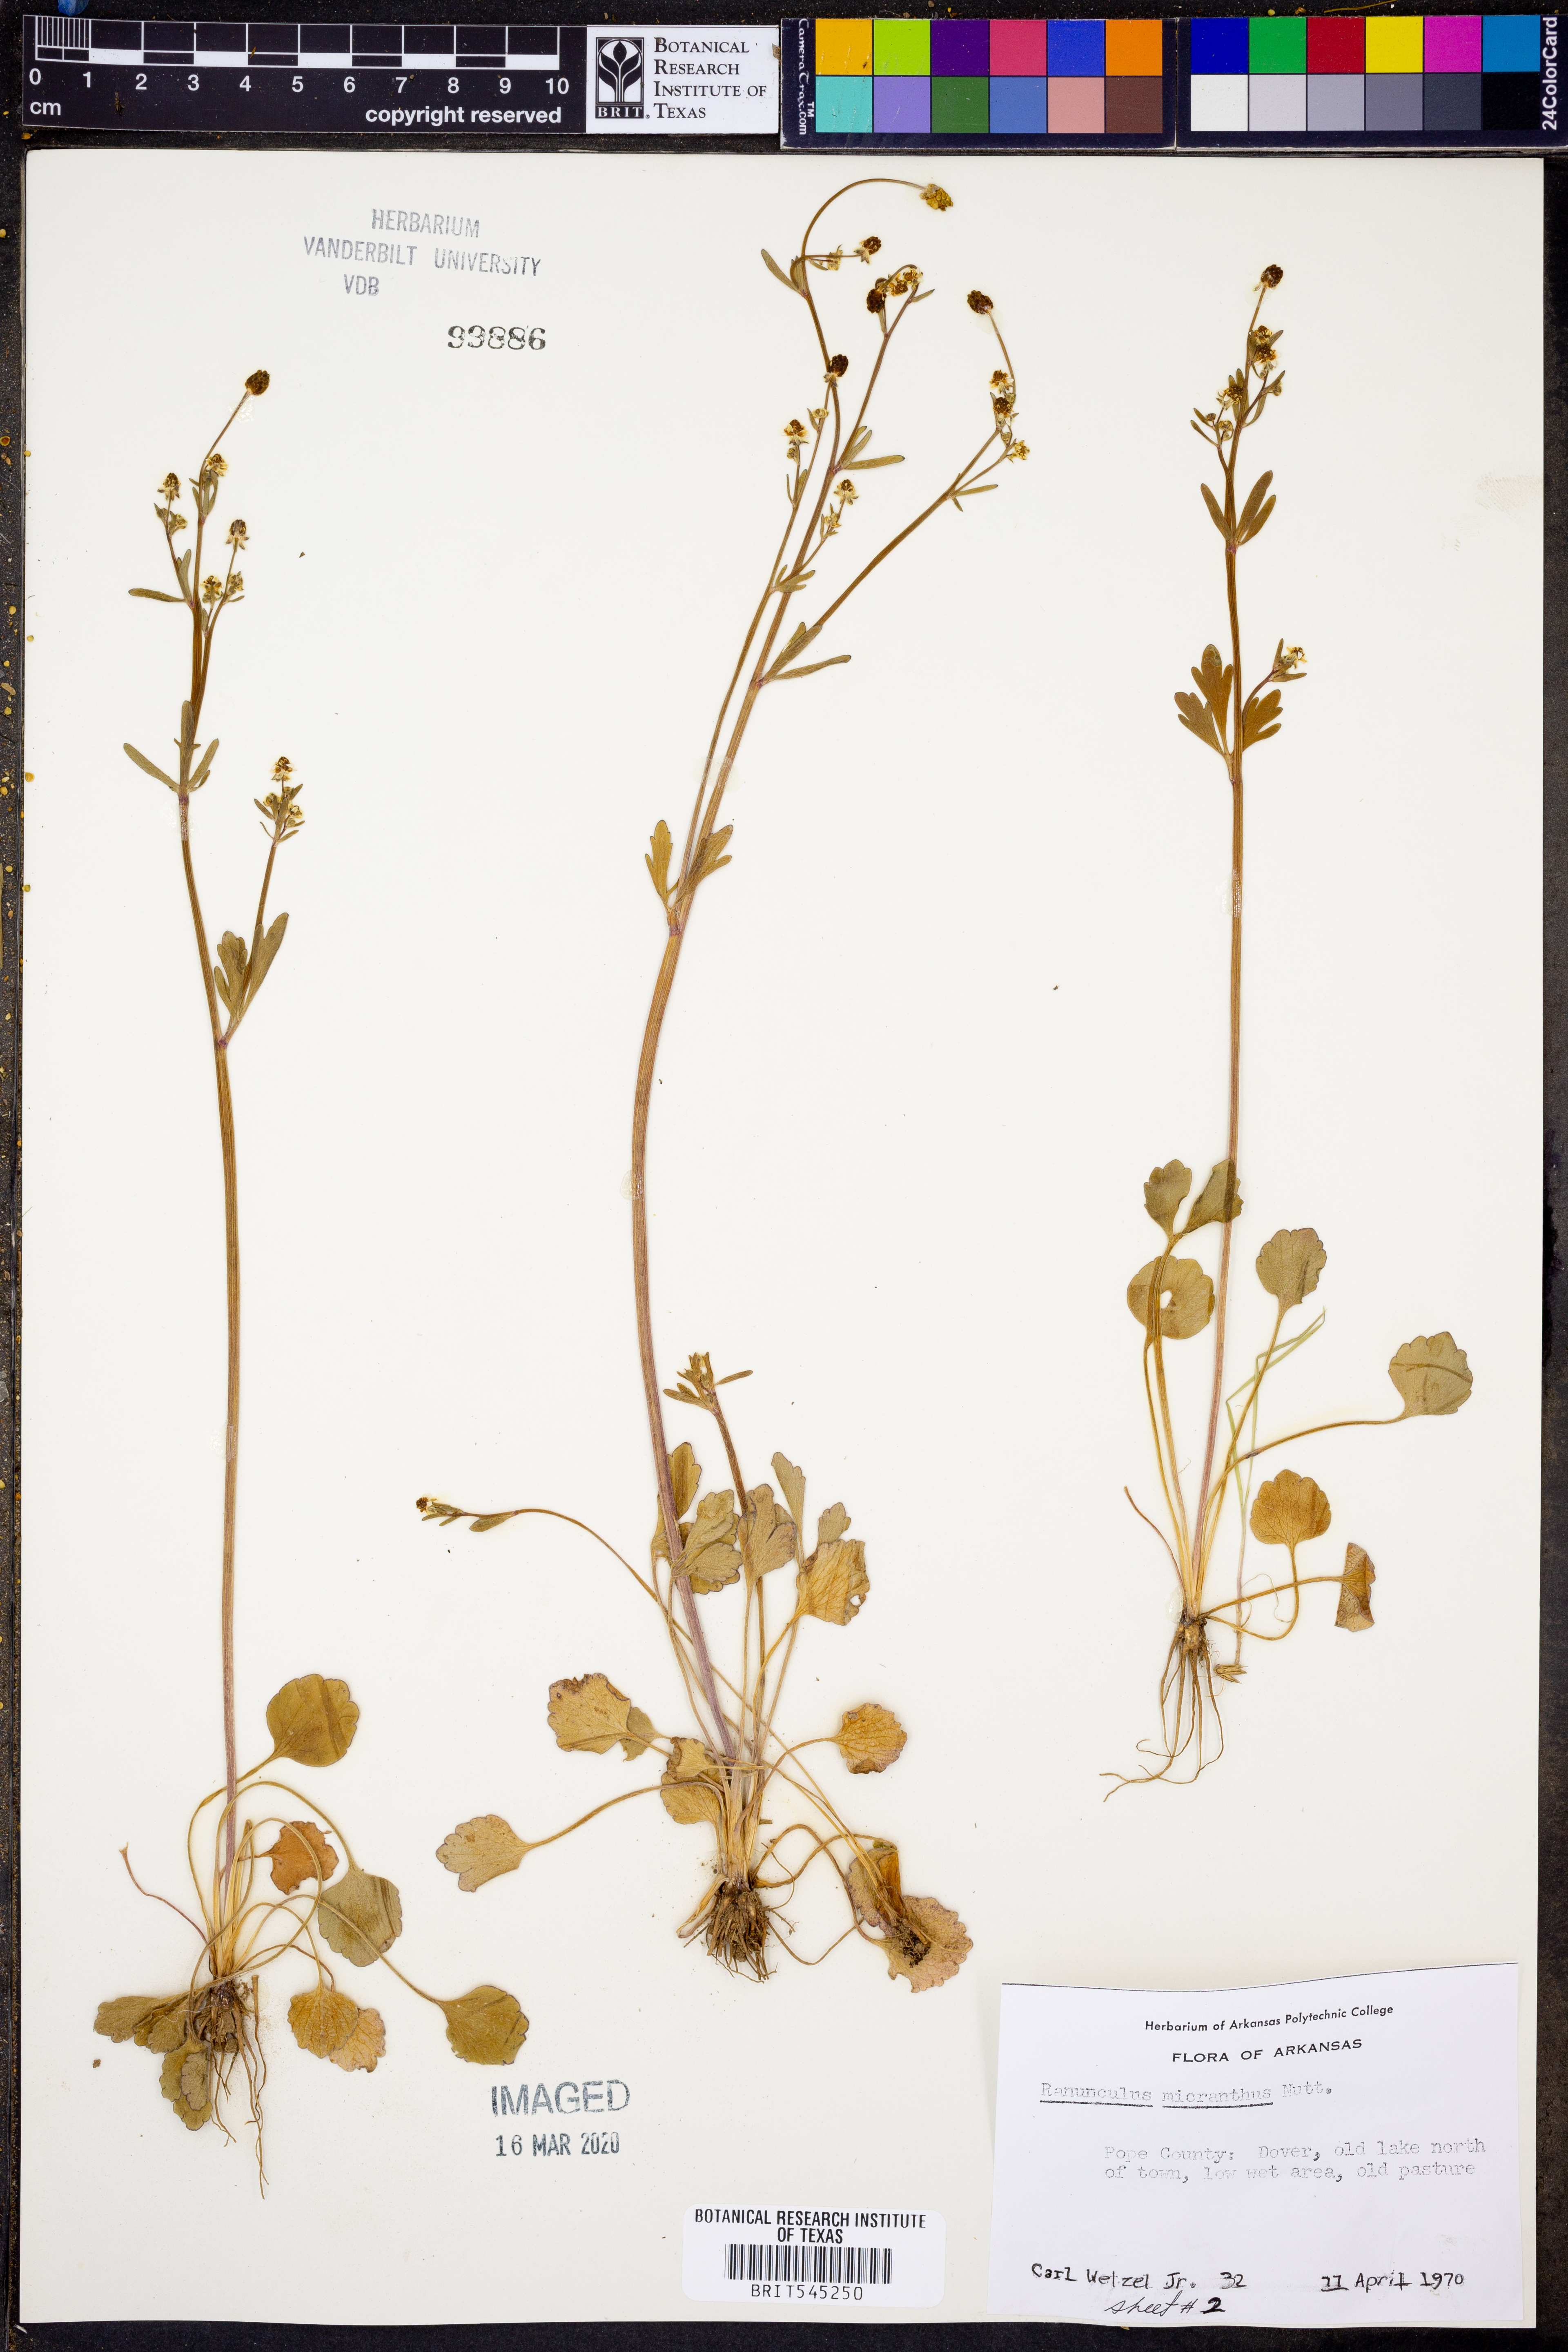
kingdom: Plantae
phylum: Tracheophyta
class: Magnoliopsida
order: Ranunculales
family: Ranunculaceae
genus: Ranunculus
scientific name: Ranunculus micranthus
